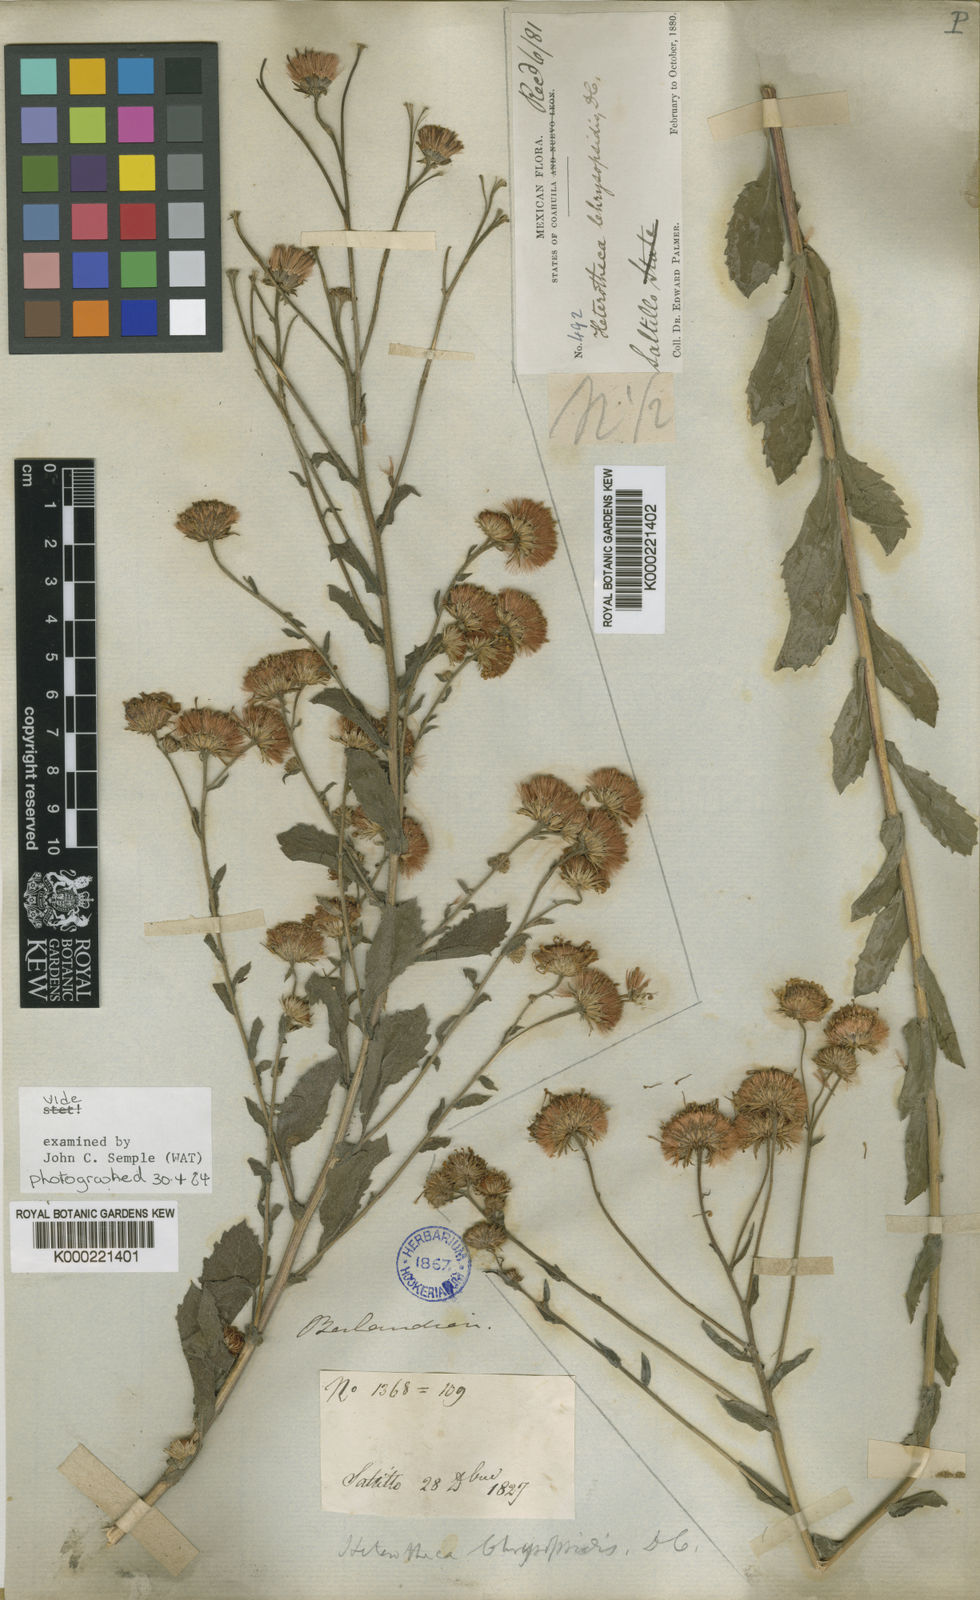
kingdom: Plantae
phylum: Tracheophyta
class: Magnoliopsida
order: Asterales
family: Asteraceae
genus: Heterotheca
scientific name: Heterotheca subaxillaris
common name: Camphorweed
